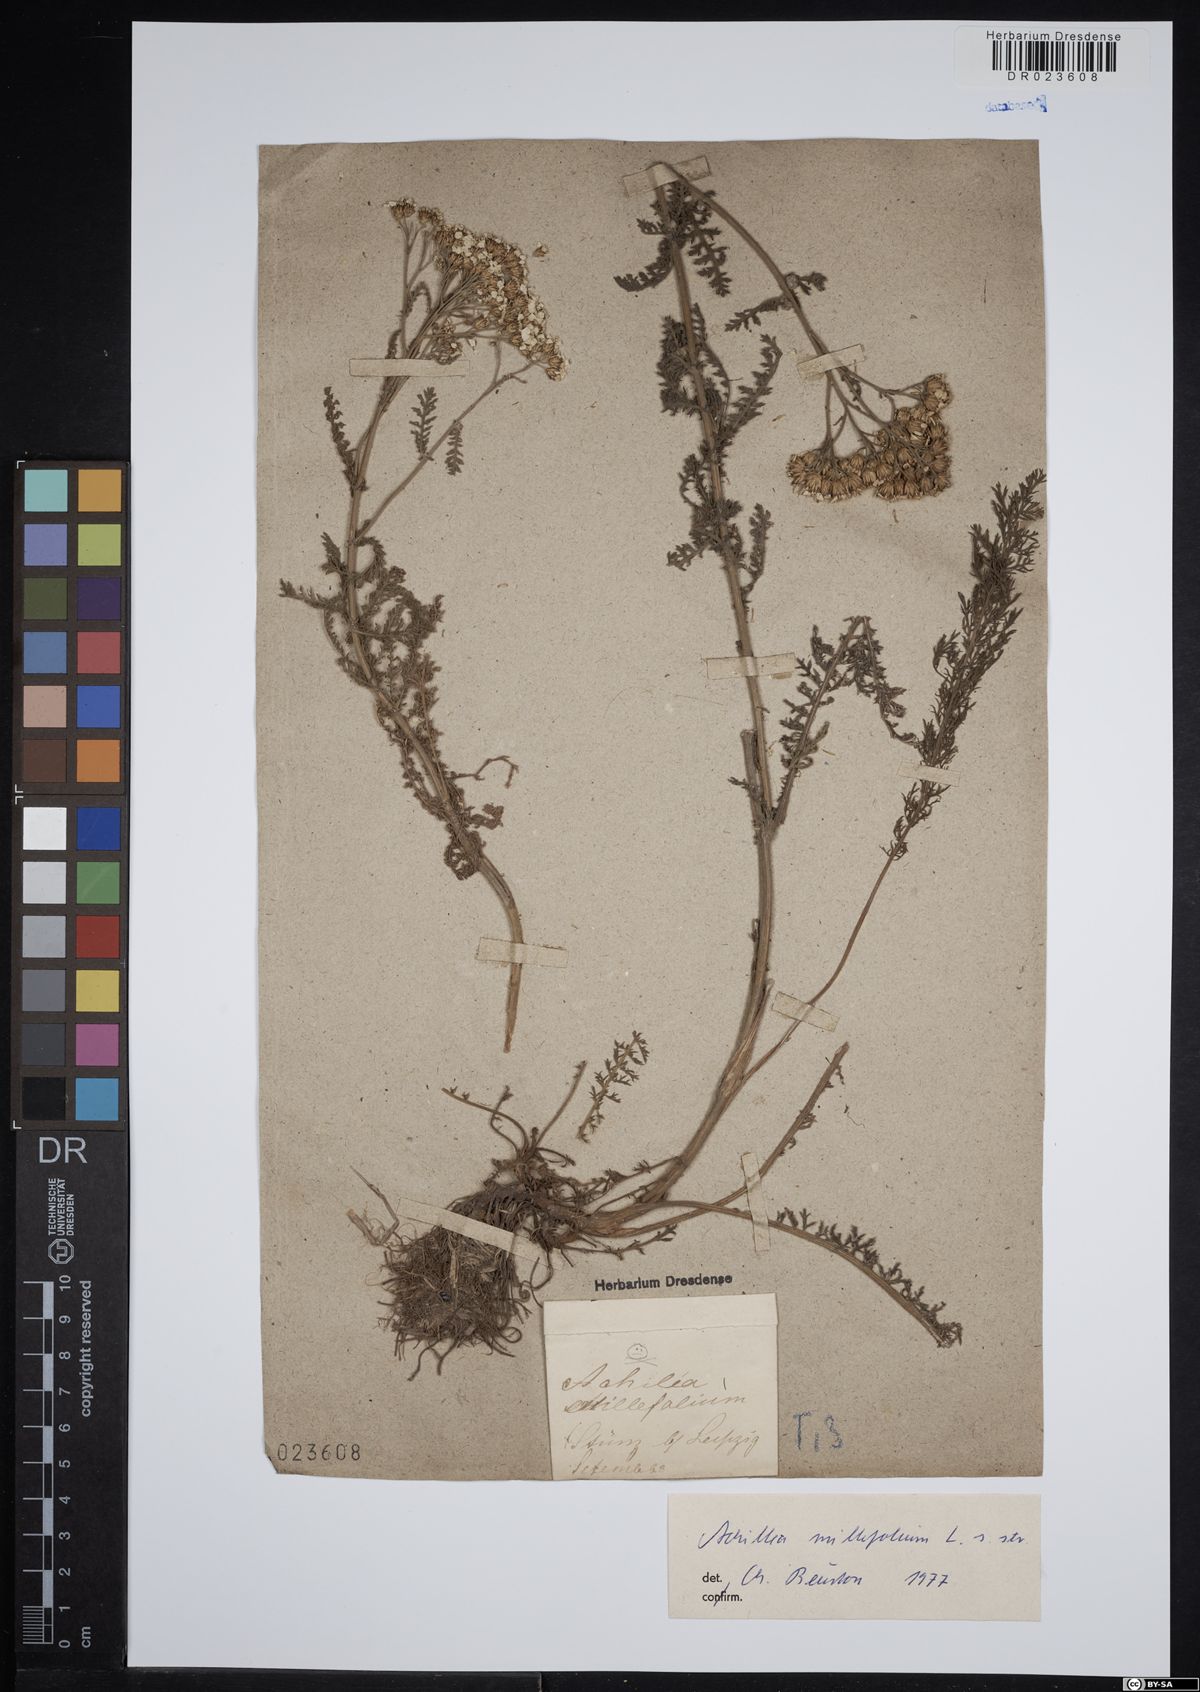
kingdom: Plantae
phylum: Tracheophyta
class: Magnoliopsida
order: Asterales
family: Asteraceae
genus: Achillea
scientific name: Achillea millefolium
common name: Yarrow
